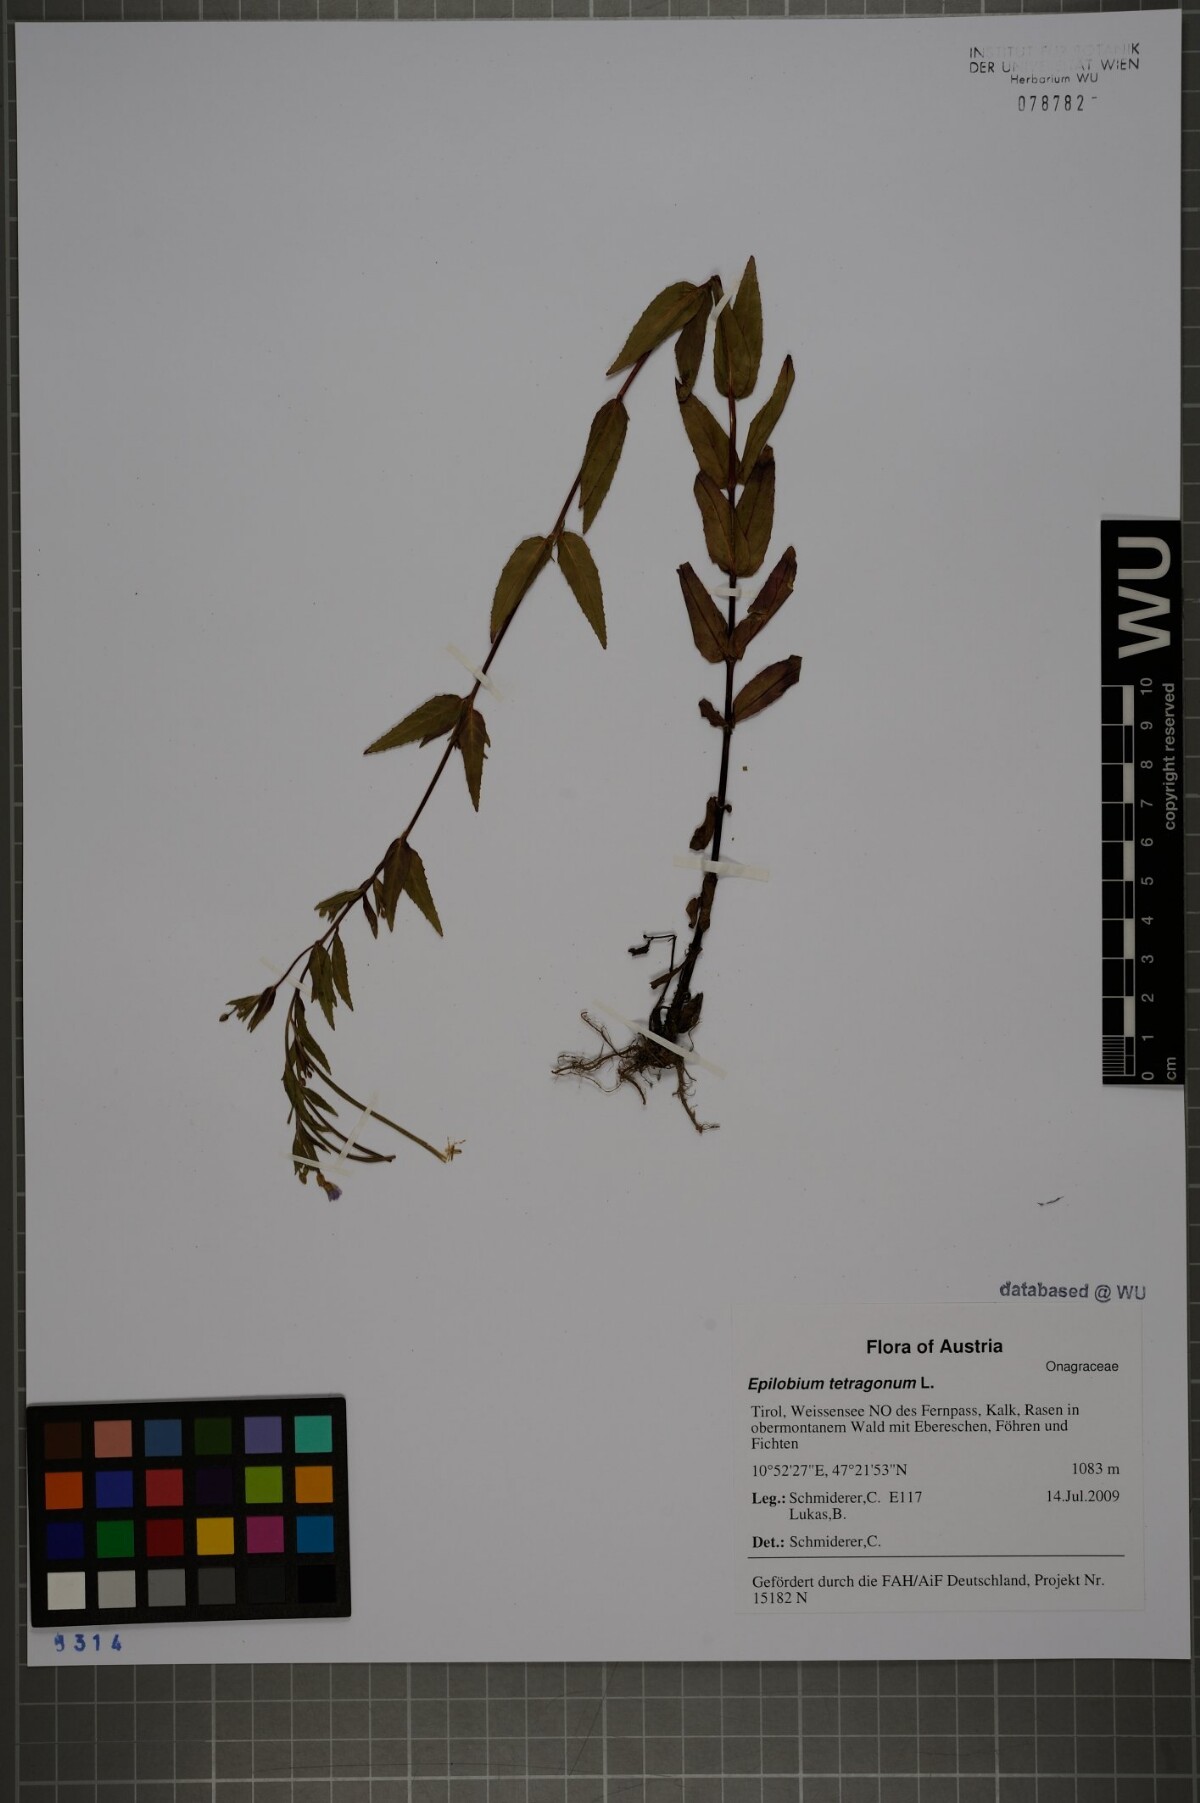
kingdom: Plantae
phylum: Tracheophyta
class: Magnoliopsida
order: Myrtales
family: Onagraceae
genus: Epilobium
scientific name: Epilobium tetragonum
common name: Square-stemmed willowherb
